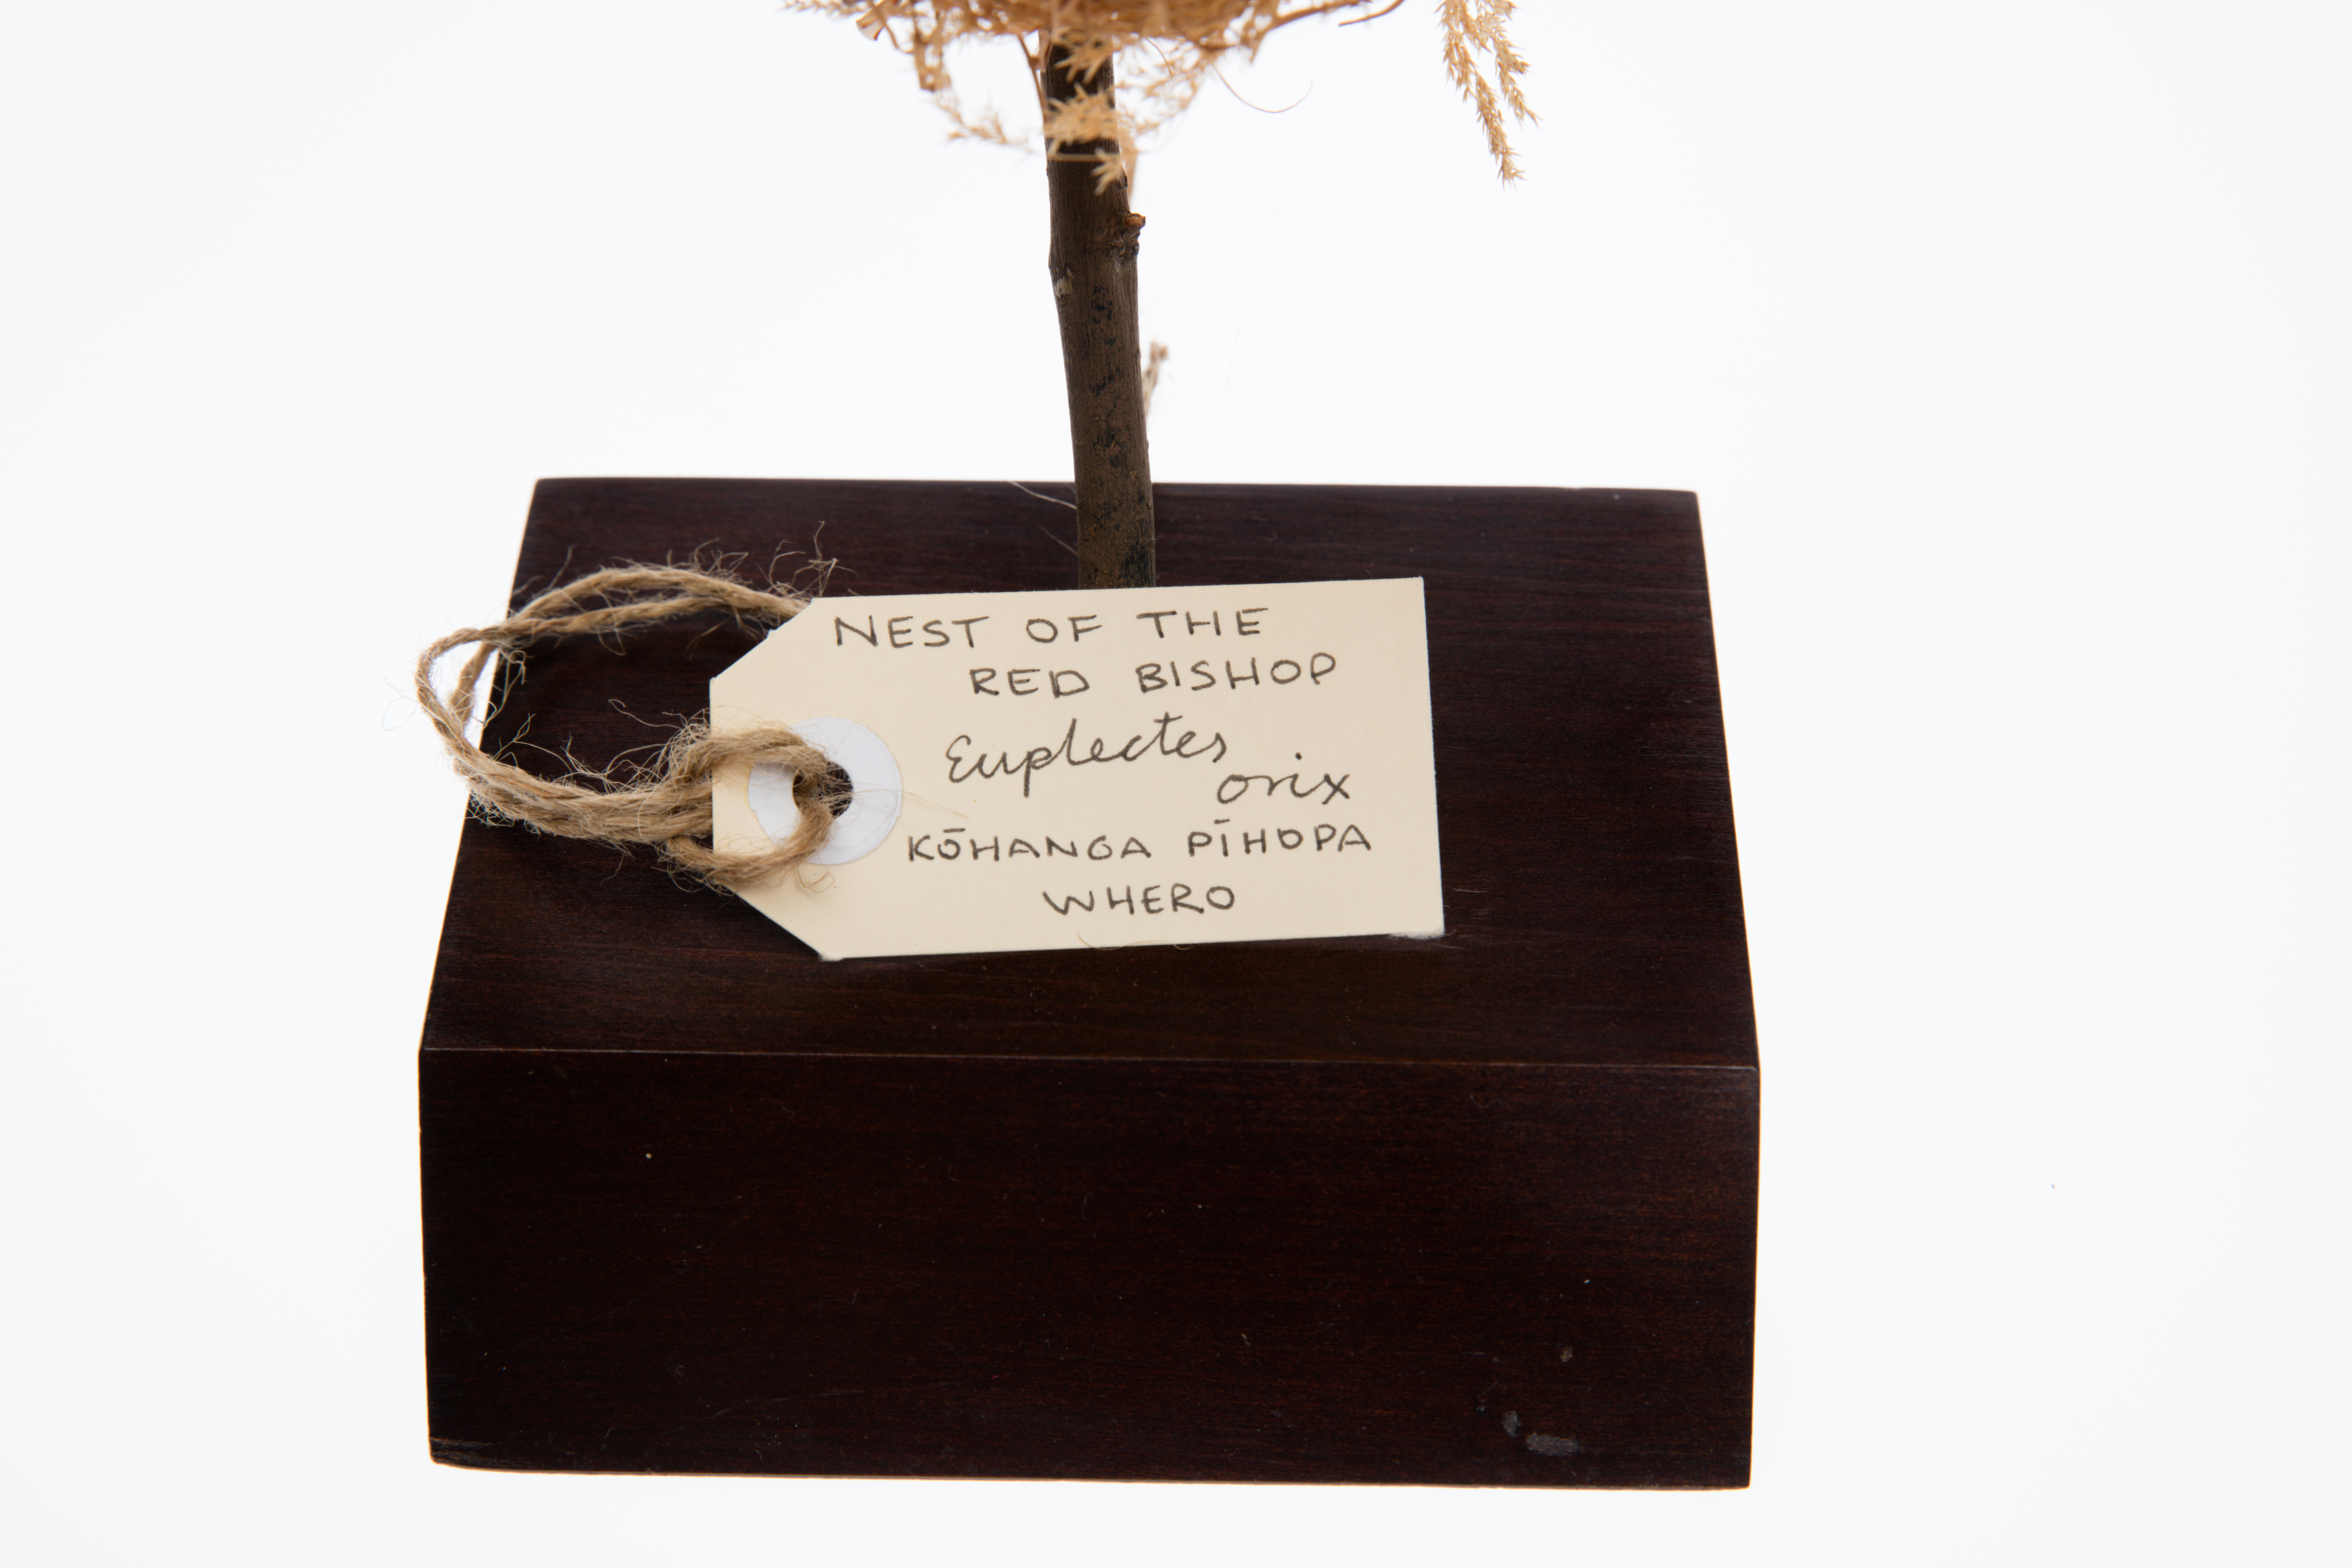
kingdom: Animalia
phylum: Chordata
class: Aves
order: Passeriformes
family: Ploceidae
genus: Euplectes
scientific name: Euplectes orix
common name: Southern red bishop
